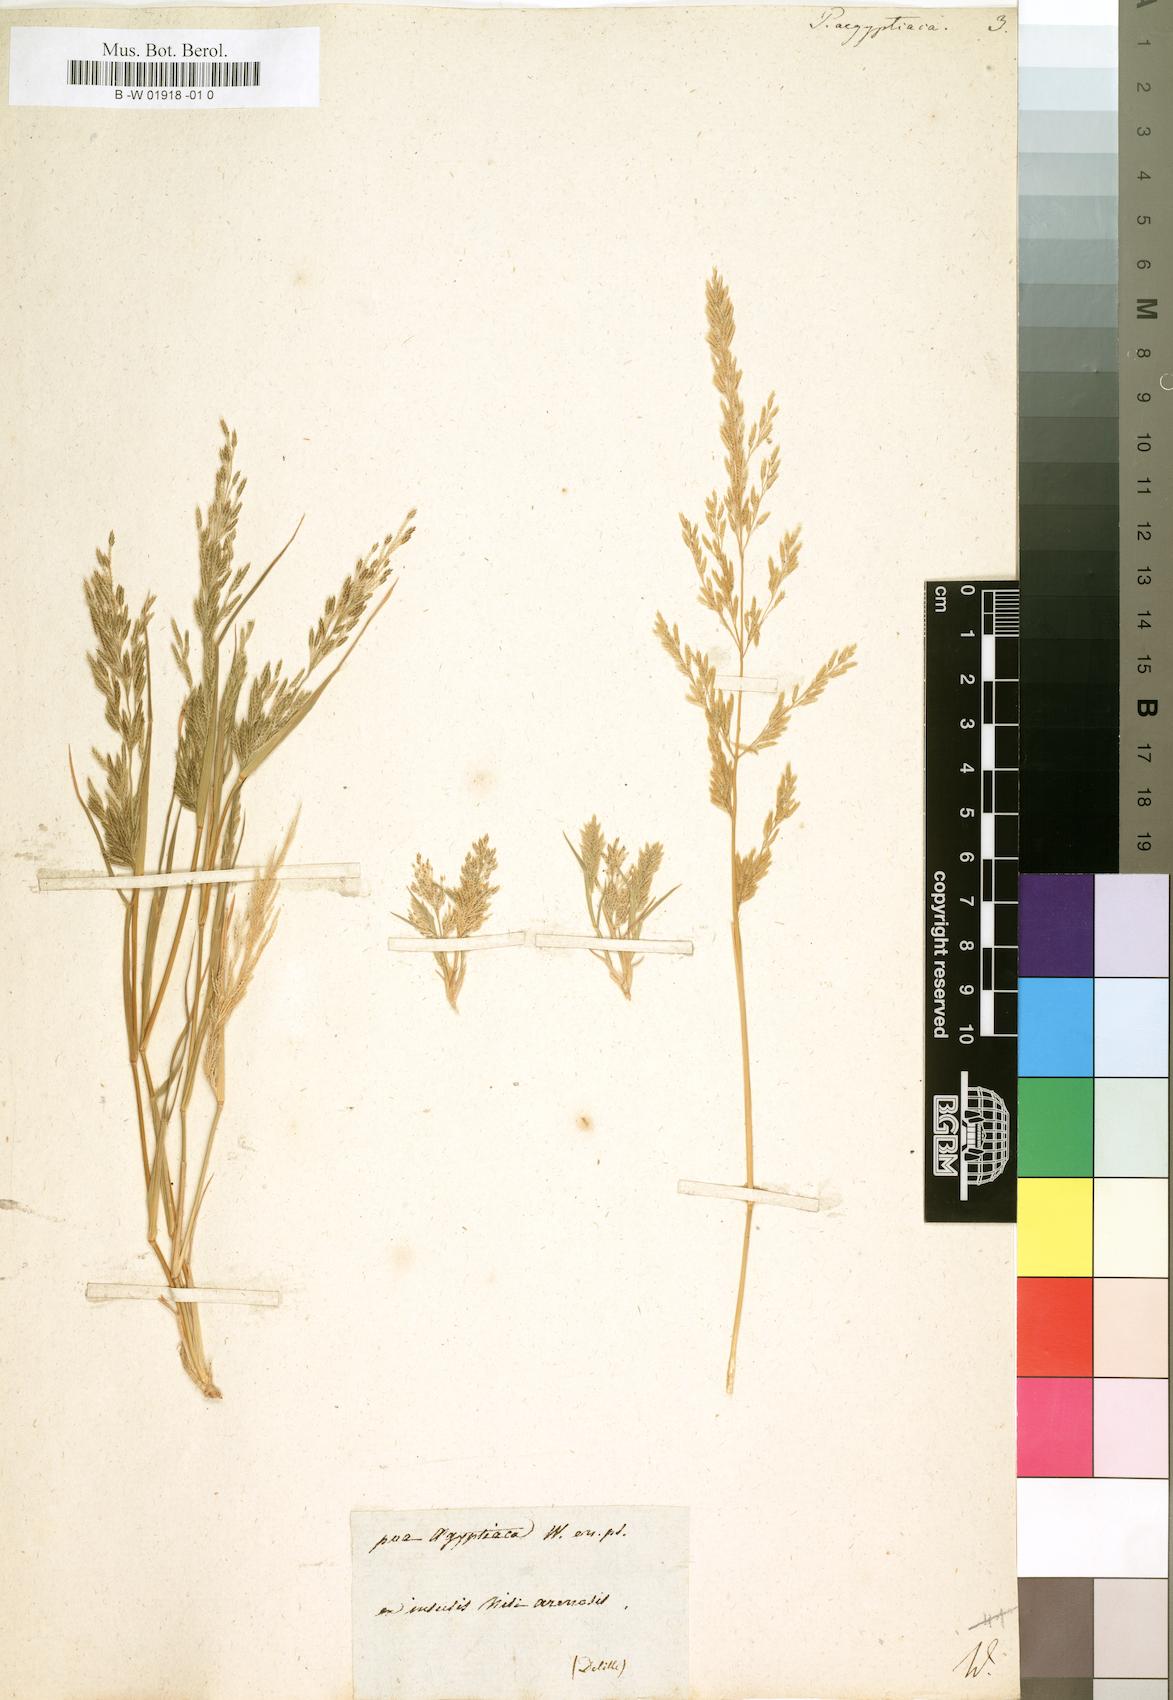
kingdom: Plantae
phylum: Tracheophyta
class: Liliopsida
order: Poales
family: Poaceae
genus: Eragrostis
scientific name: Eragrostis aegyptiaca
